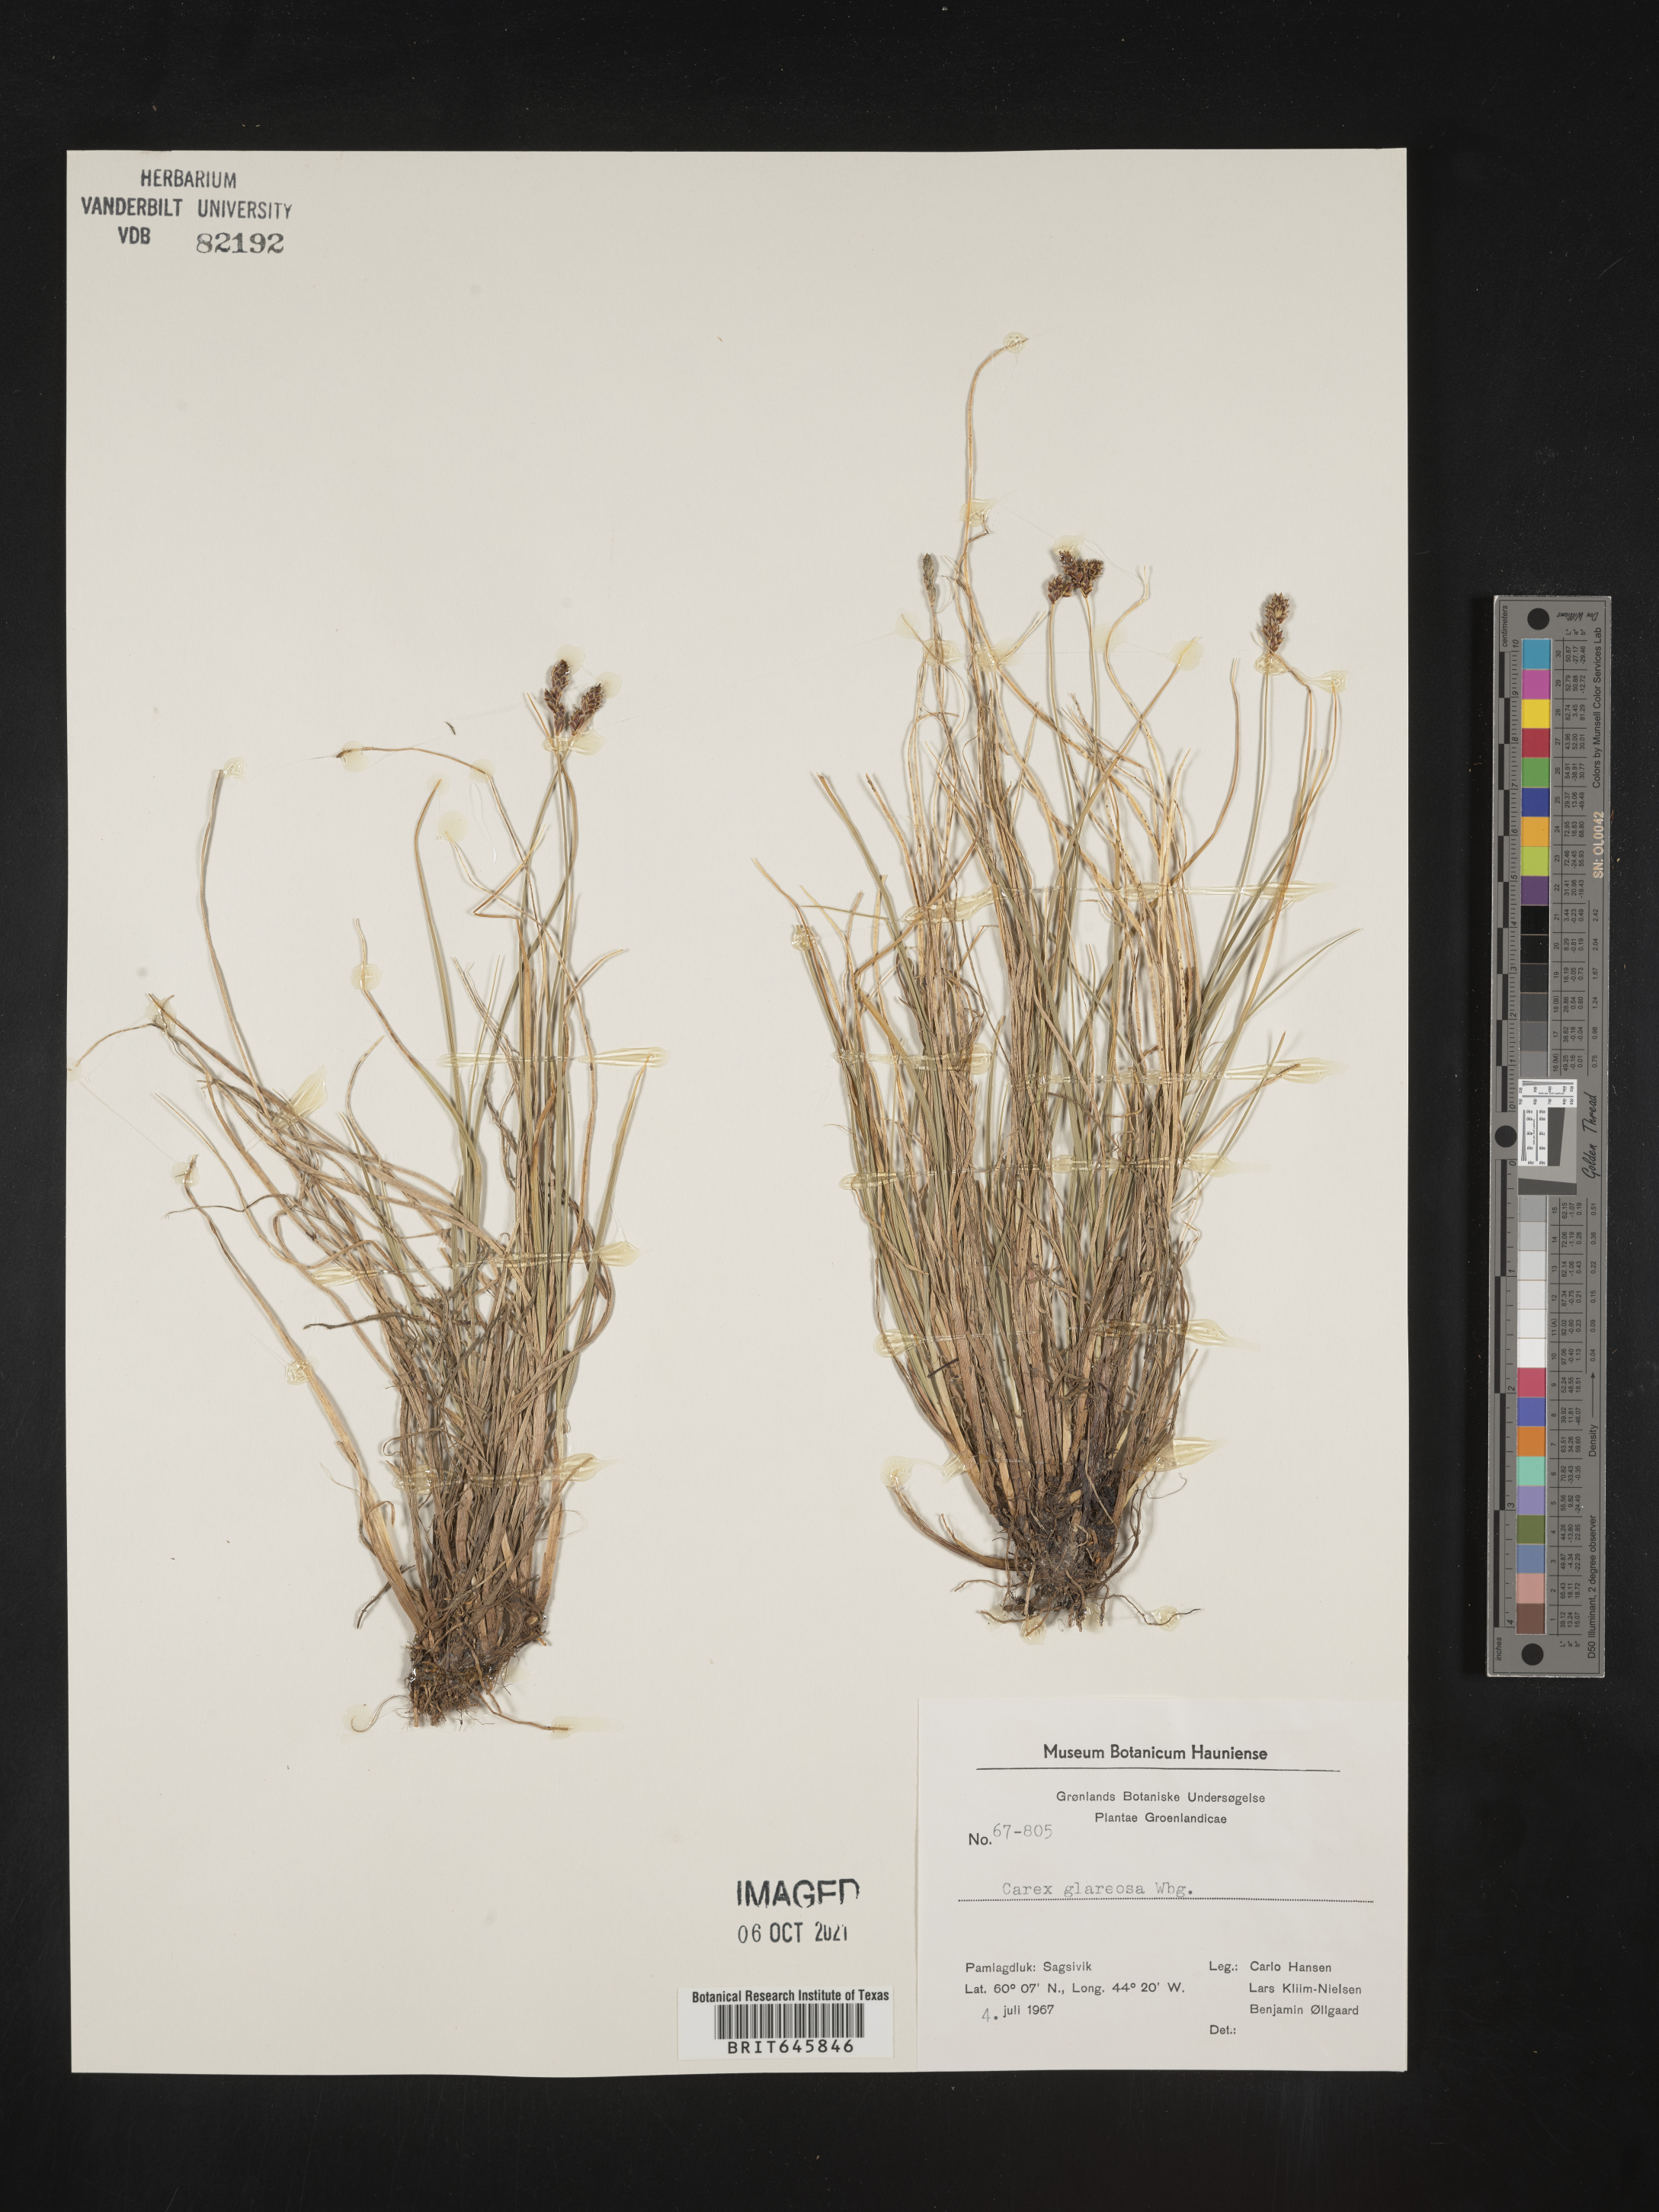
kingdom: Plantae
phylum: Tracheophyta
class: Liliopsida
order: Poales
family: Cyperaceae
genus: Carex
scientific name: Carex glareosa
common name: Clustered sedge
